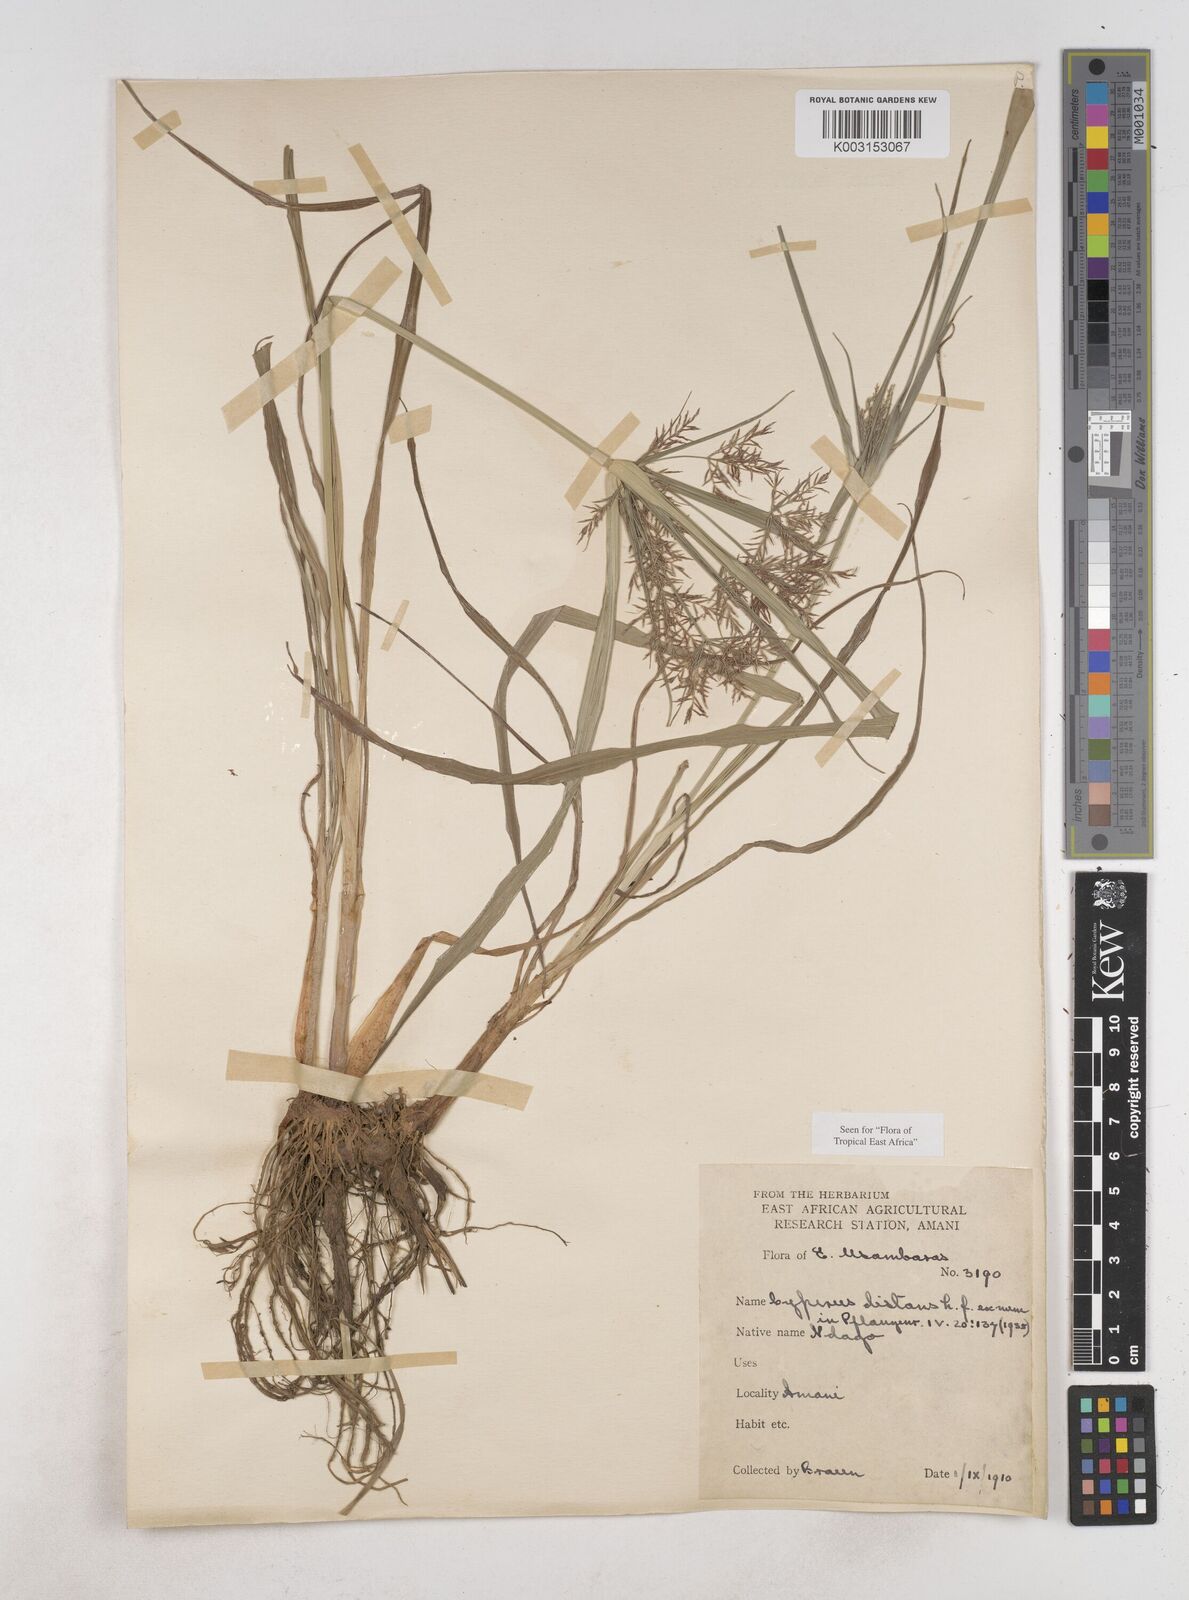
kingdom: Plantae
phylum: Tracheophyta
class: Liliopsida
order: Poales
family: Cyperaceae
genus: Cyperus
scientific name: Cyperus distans
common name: Slender cyperus
